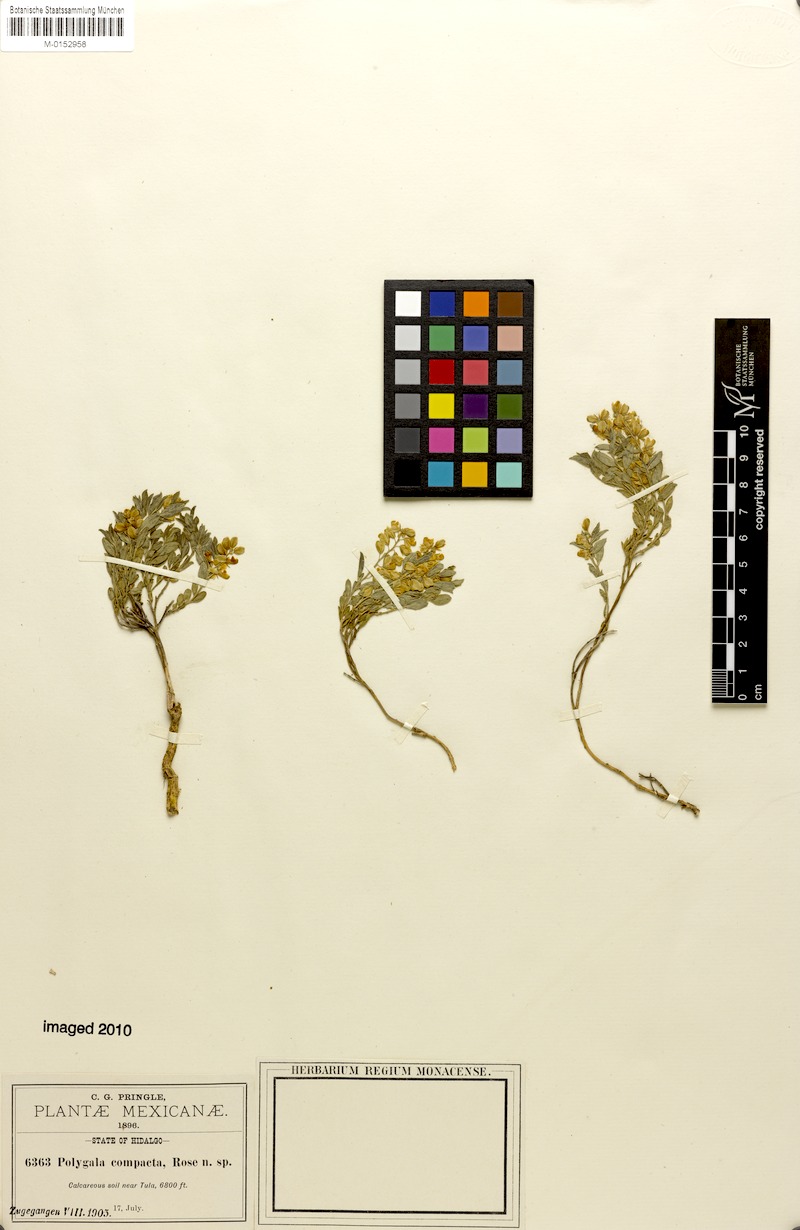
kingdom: Plantae
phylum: Tracheophyta
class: Magnoliopsida
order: Fabales
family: Polygalaceae
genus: Polygala
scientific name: Polygala compacta
